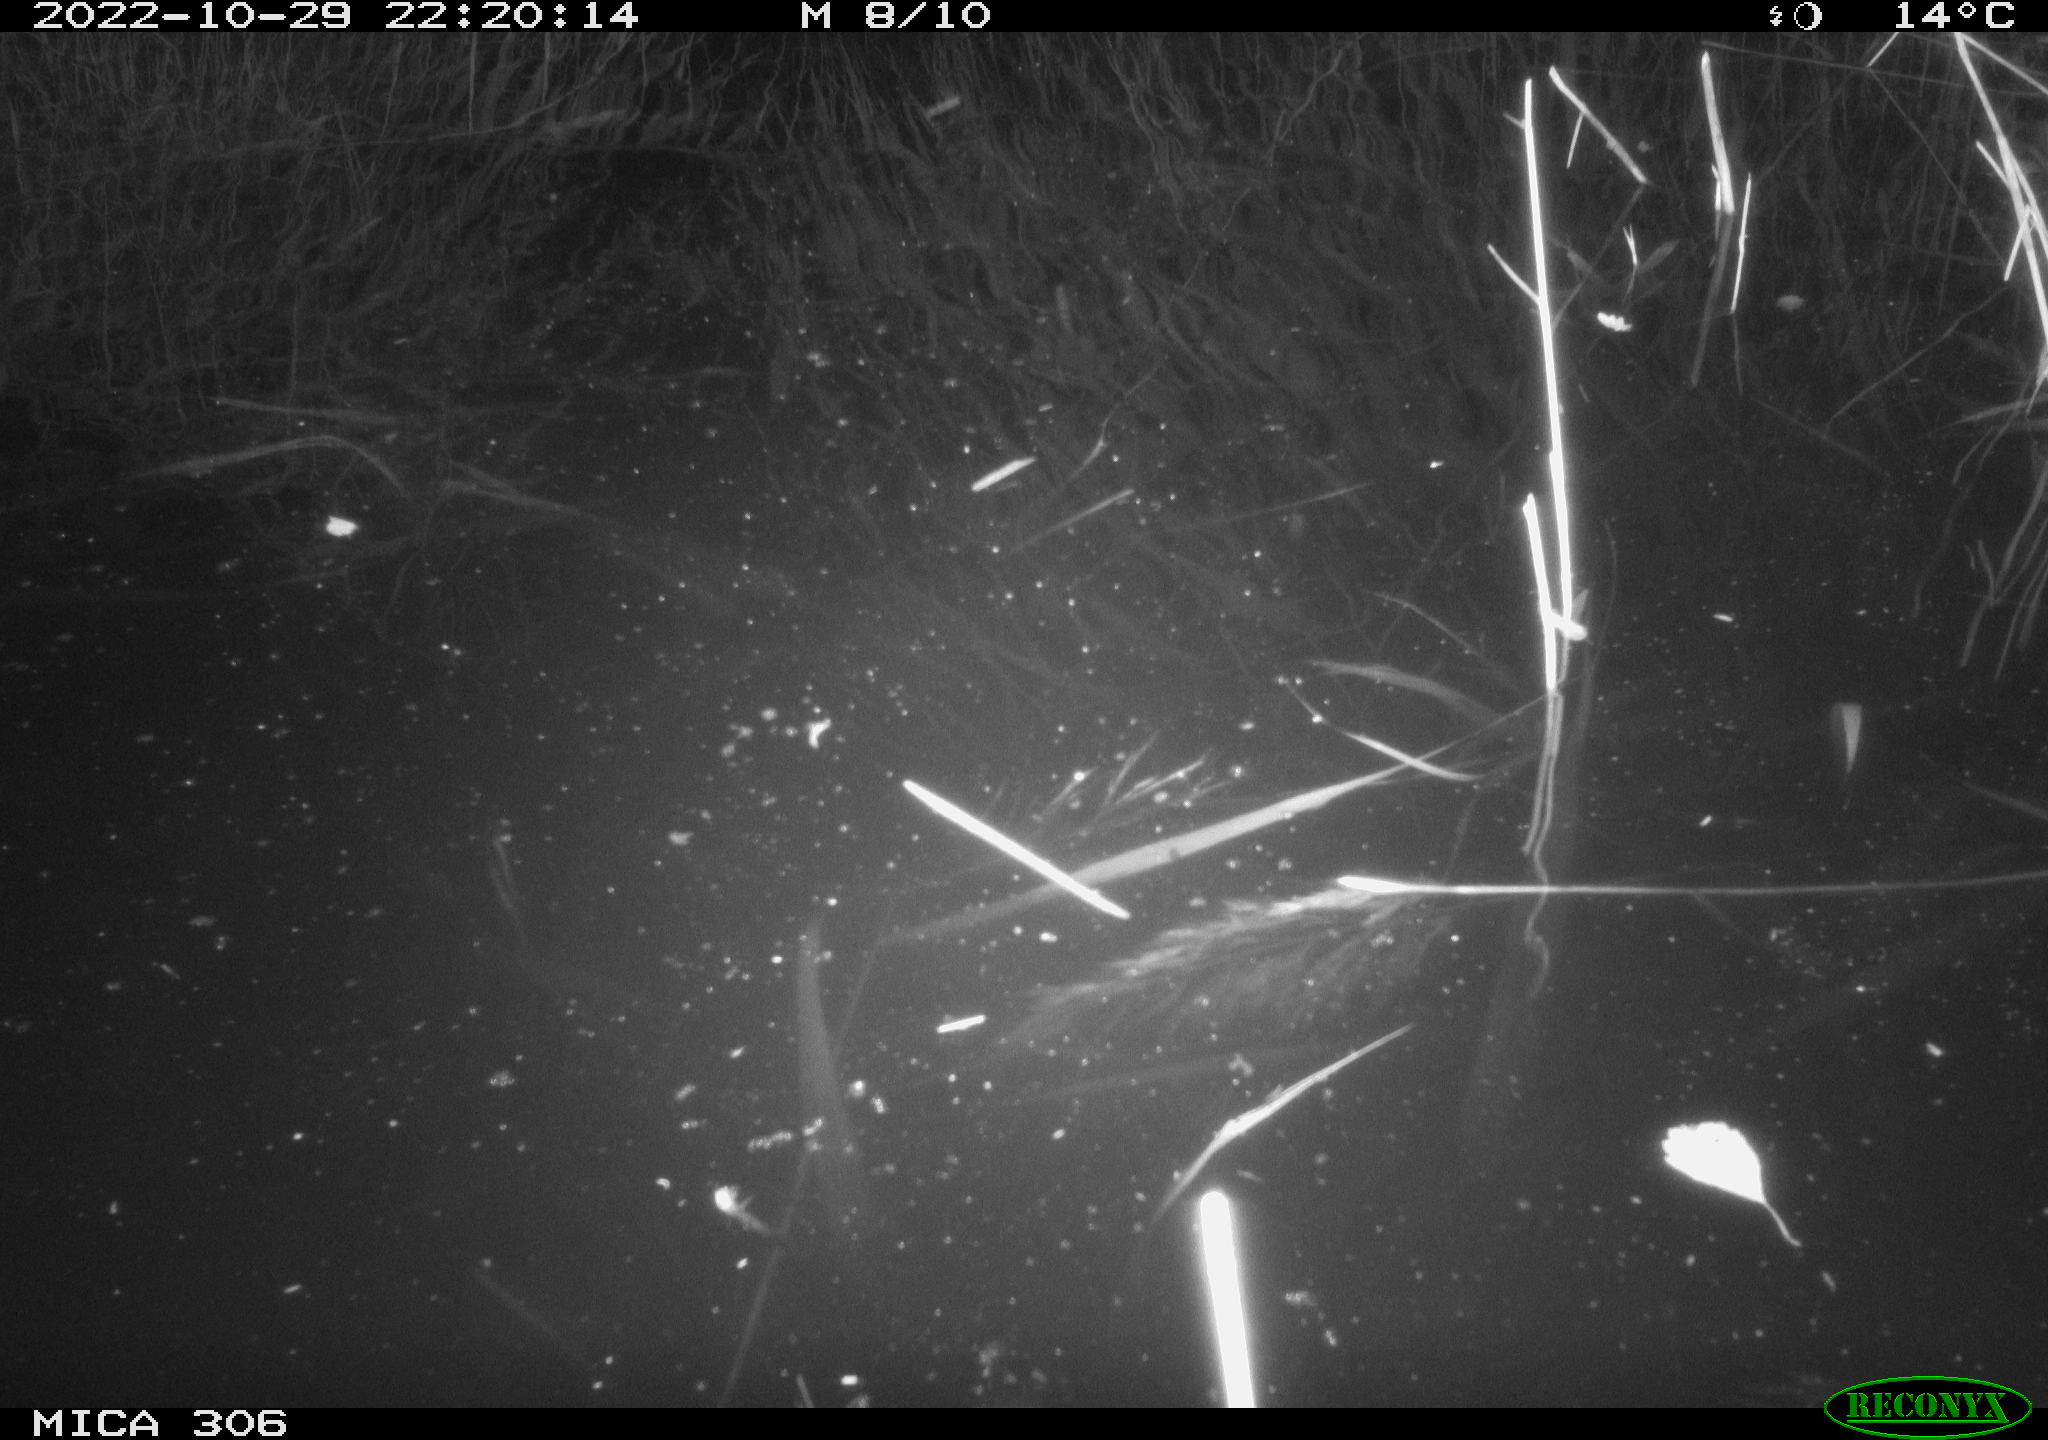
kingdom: Animalia
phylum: Chordata
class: Mammalia
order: Rodentia
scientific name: Rodentia
